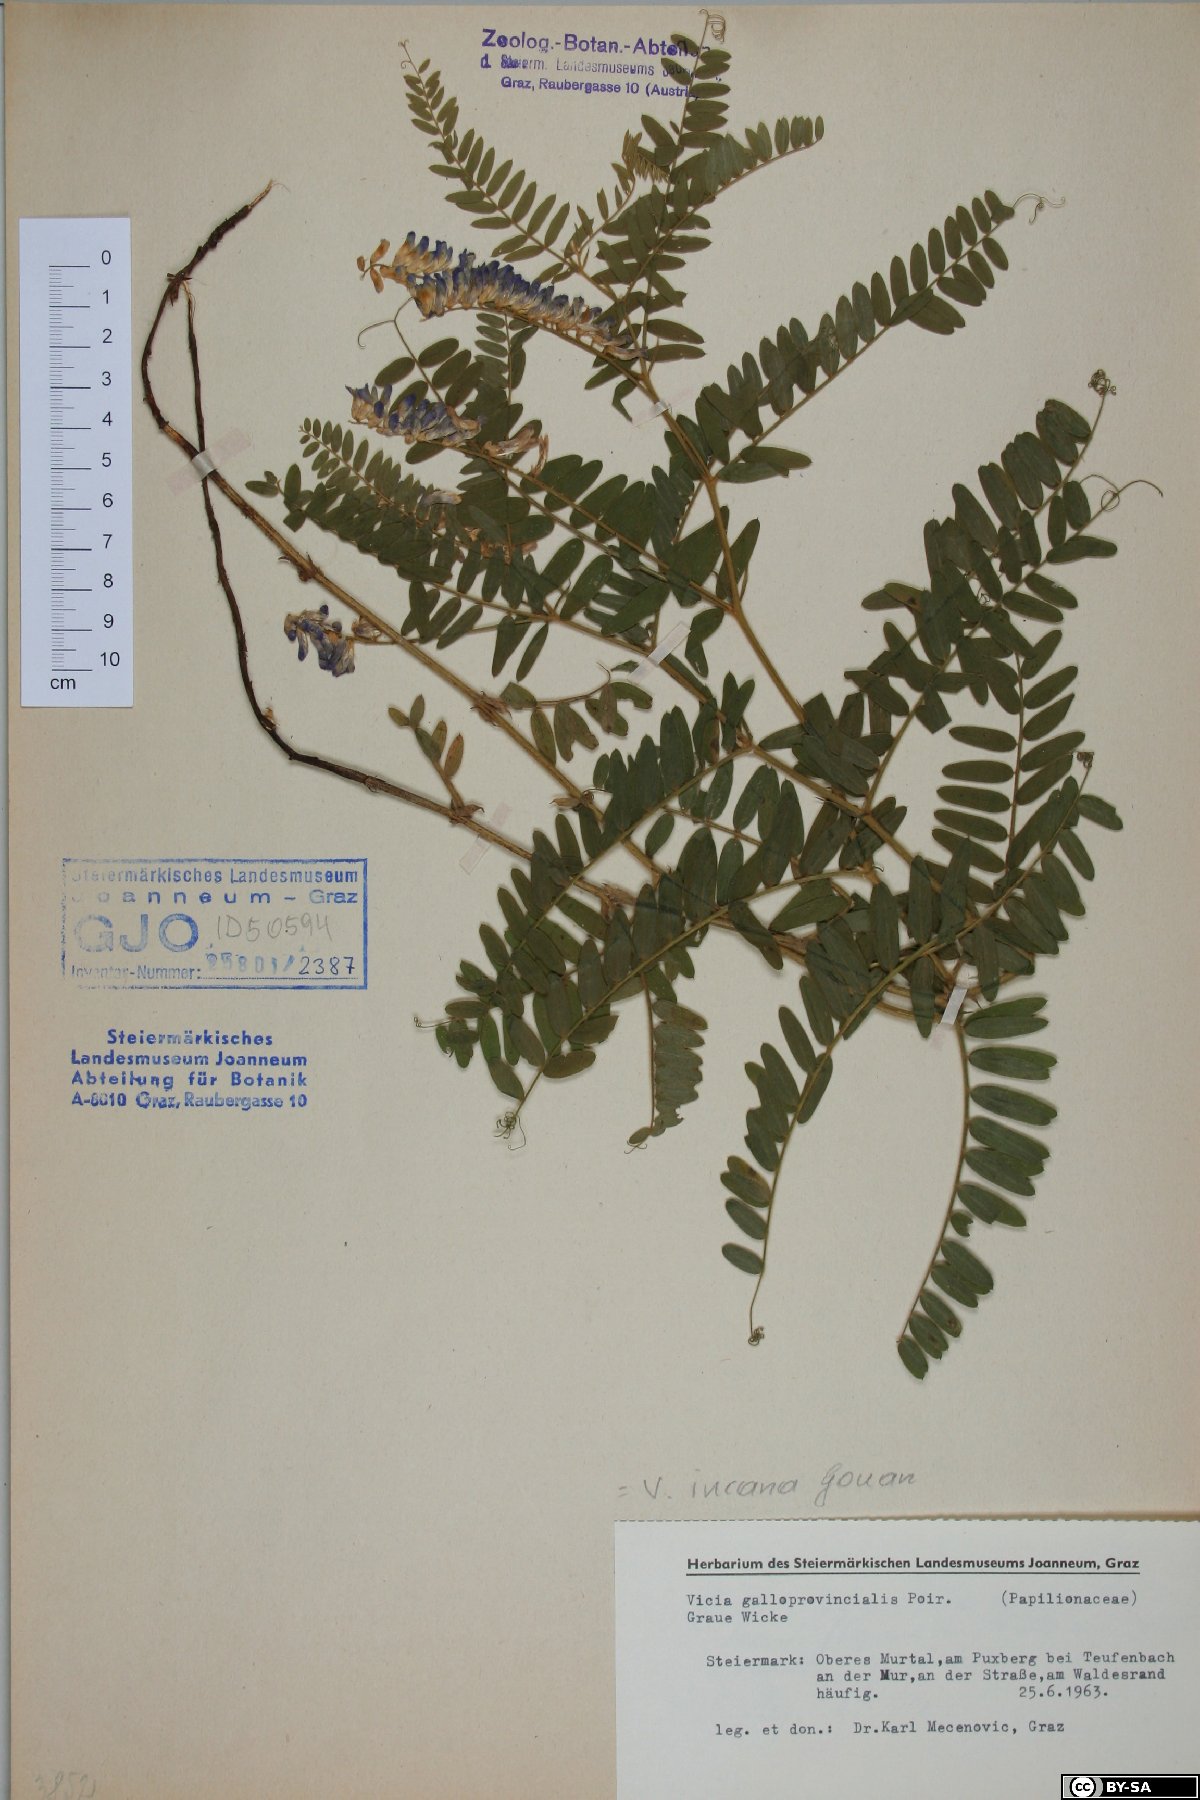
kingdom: Plantae
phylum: Tracheophyta
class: Magnoliopsida
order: Fabales
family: Fabaceae
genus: Vicia
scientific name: Vicia incana
